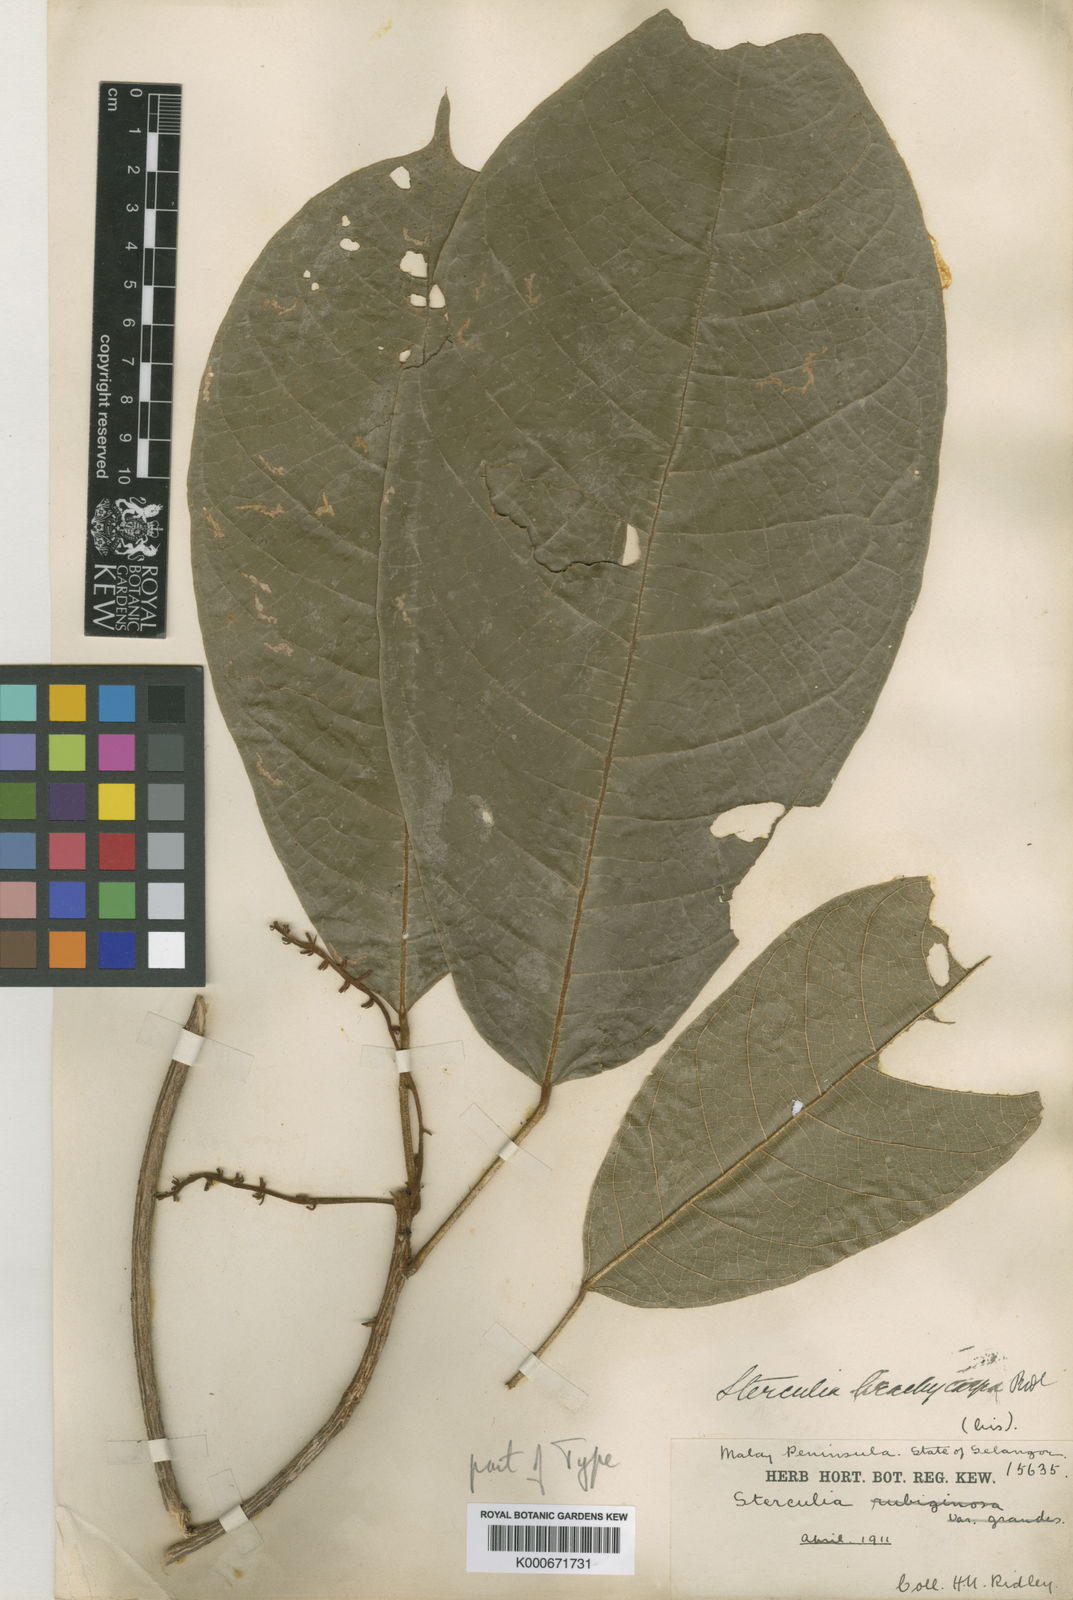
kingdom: Plantae
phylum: Tracheophyta
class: Magnoliopsida
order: Malvales
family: Malvaceae
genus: Sterculia
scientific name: Sterculia rubiginosa
